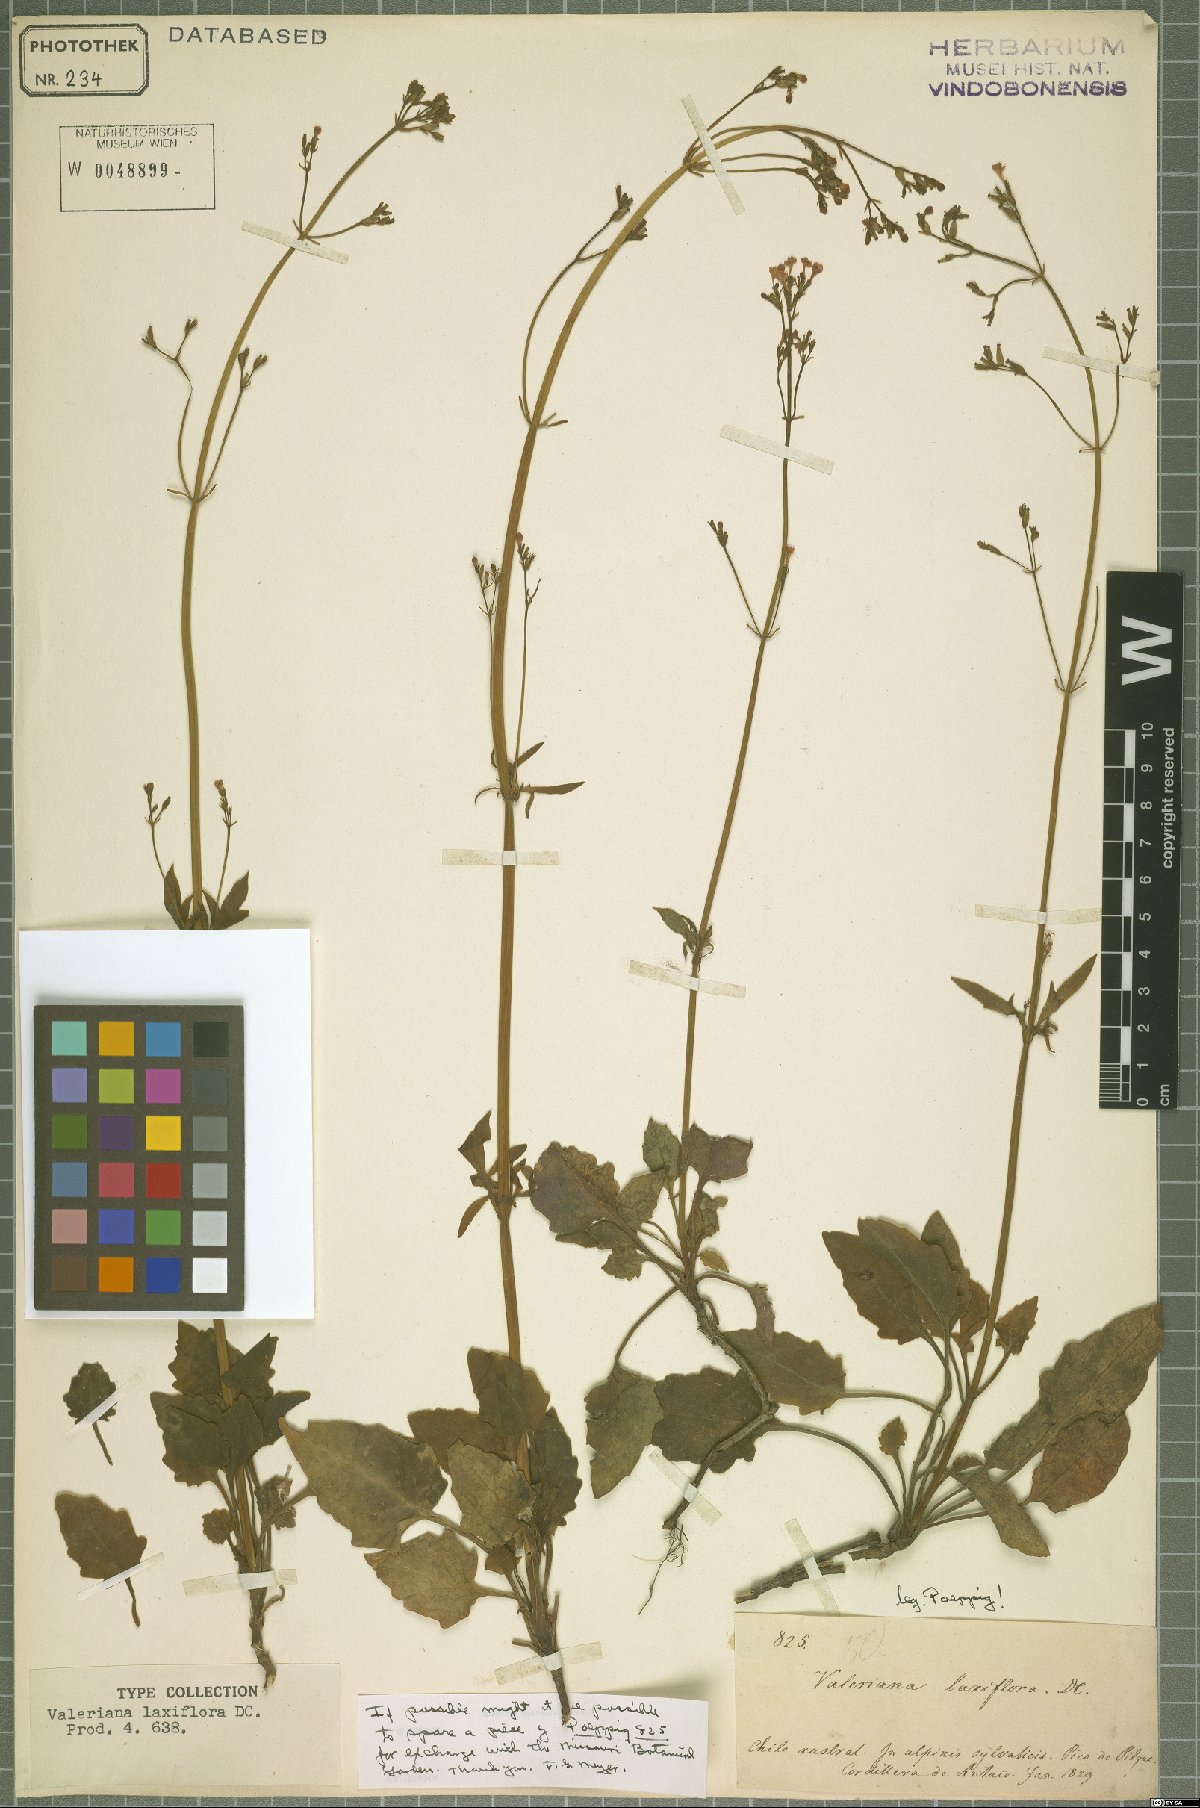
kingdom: Plantae
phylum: Tracheophyta
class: Magnoliopsida
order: Dipsacales
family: Caprifoliaceae
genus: Valeriana
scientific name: Valeriana laxiflora
